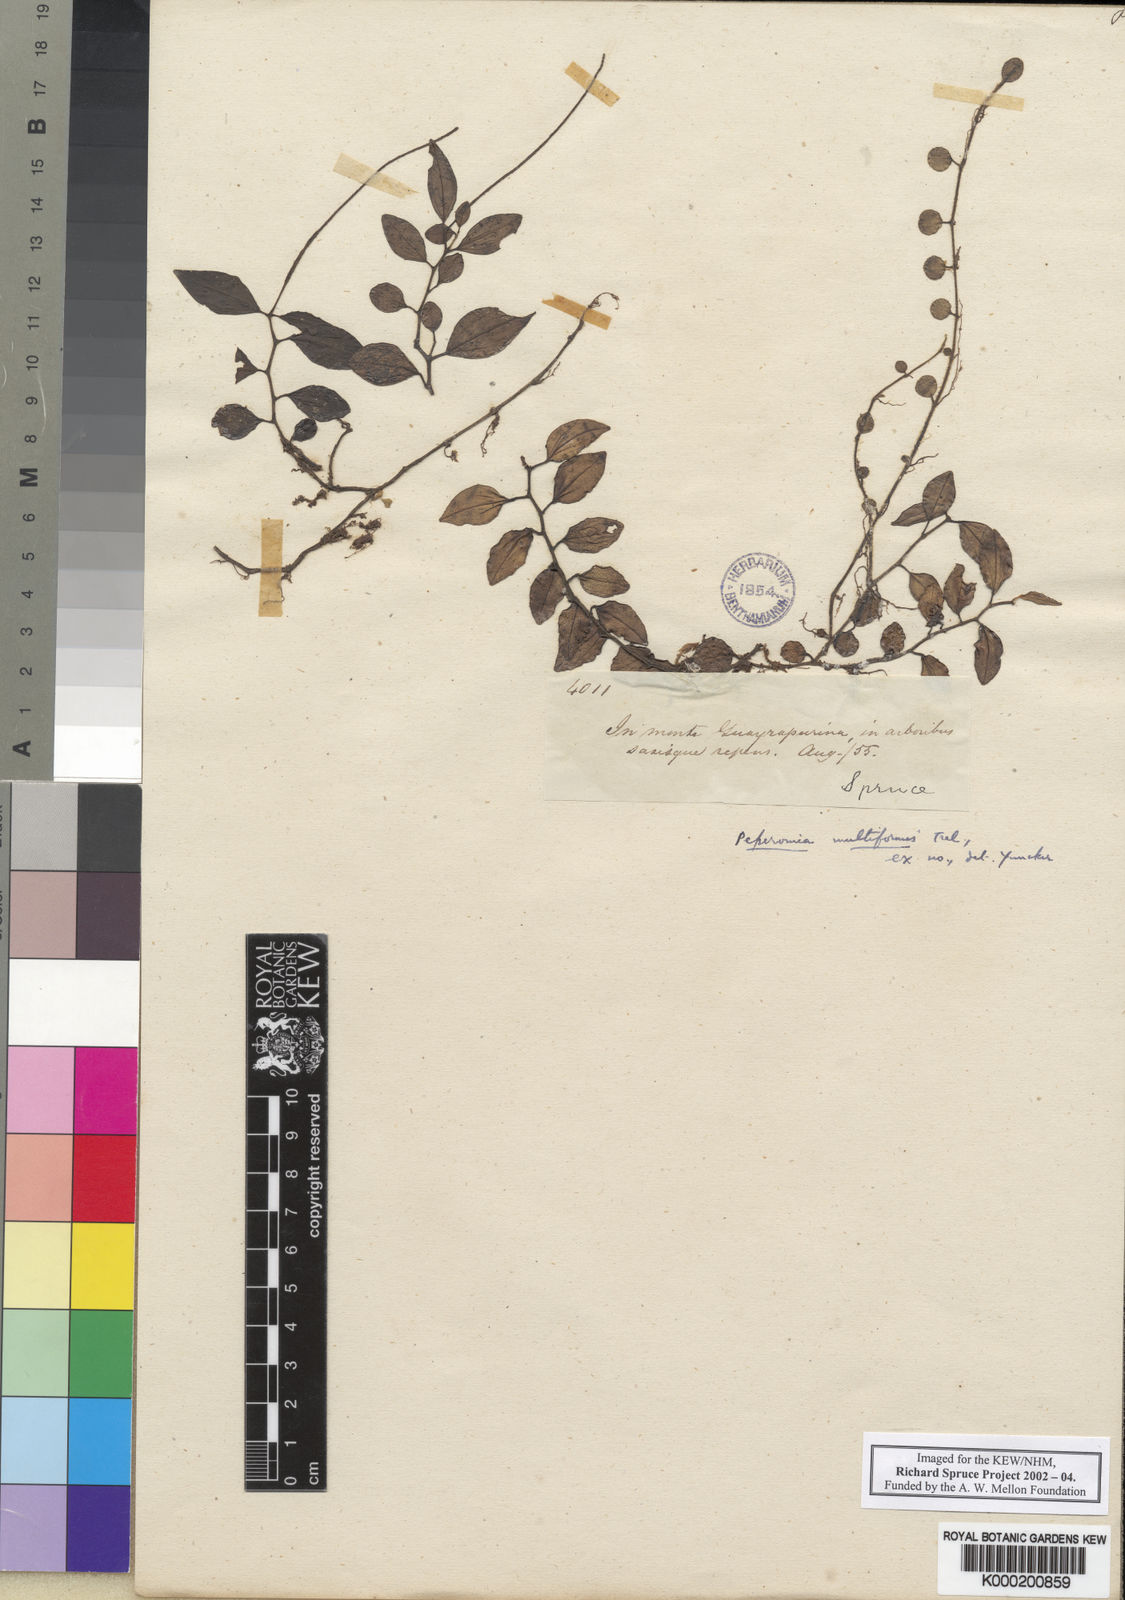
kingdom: Plantae
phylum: Tracheophyta
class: Magnoliopsida
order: Piperales
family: Piperaceae
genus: Peperomia
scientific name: Peperomia multiformis
